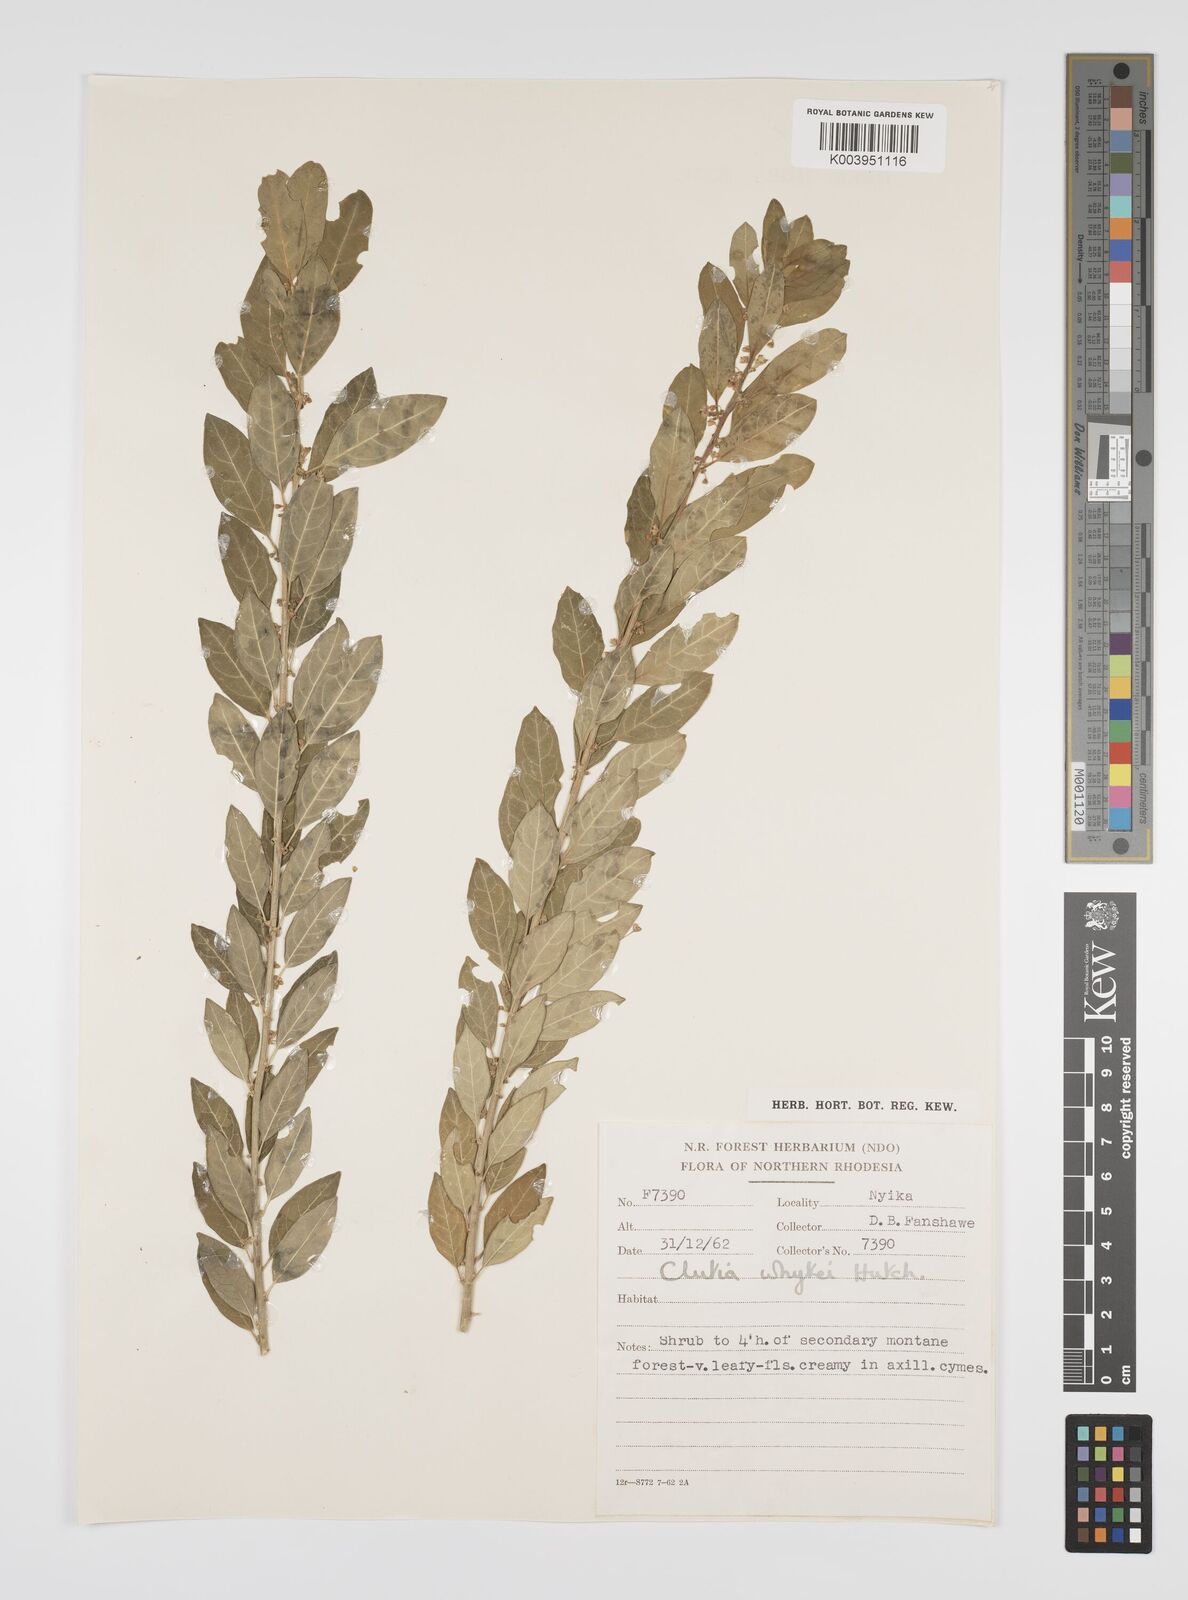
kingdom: Plantae
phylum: Tracheophyta
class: Magnoliopsida
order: Malpighiales
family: Peraceae
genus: Clutia
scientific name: Clutia
